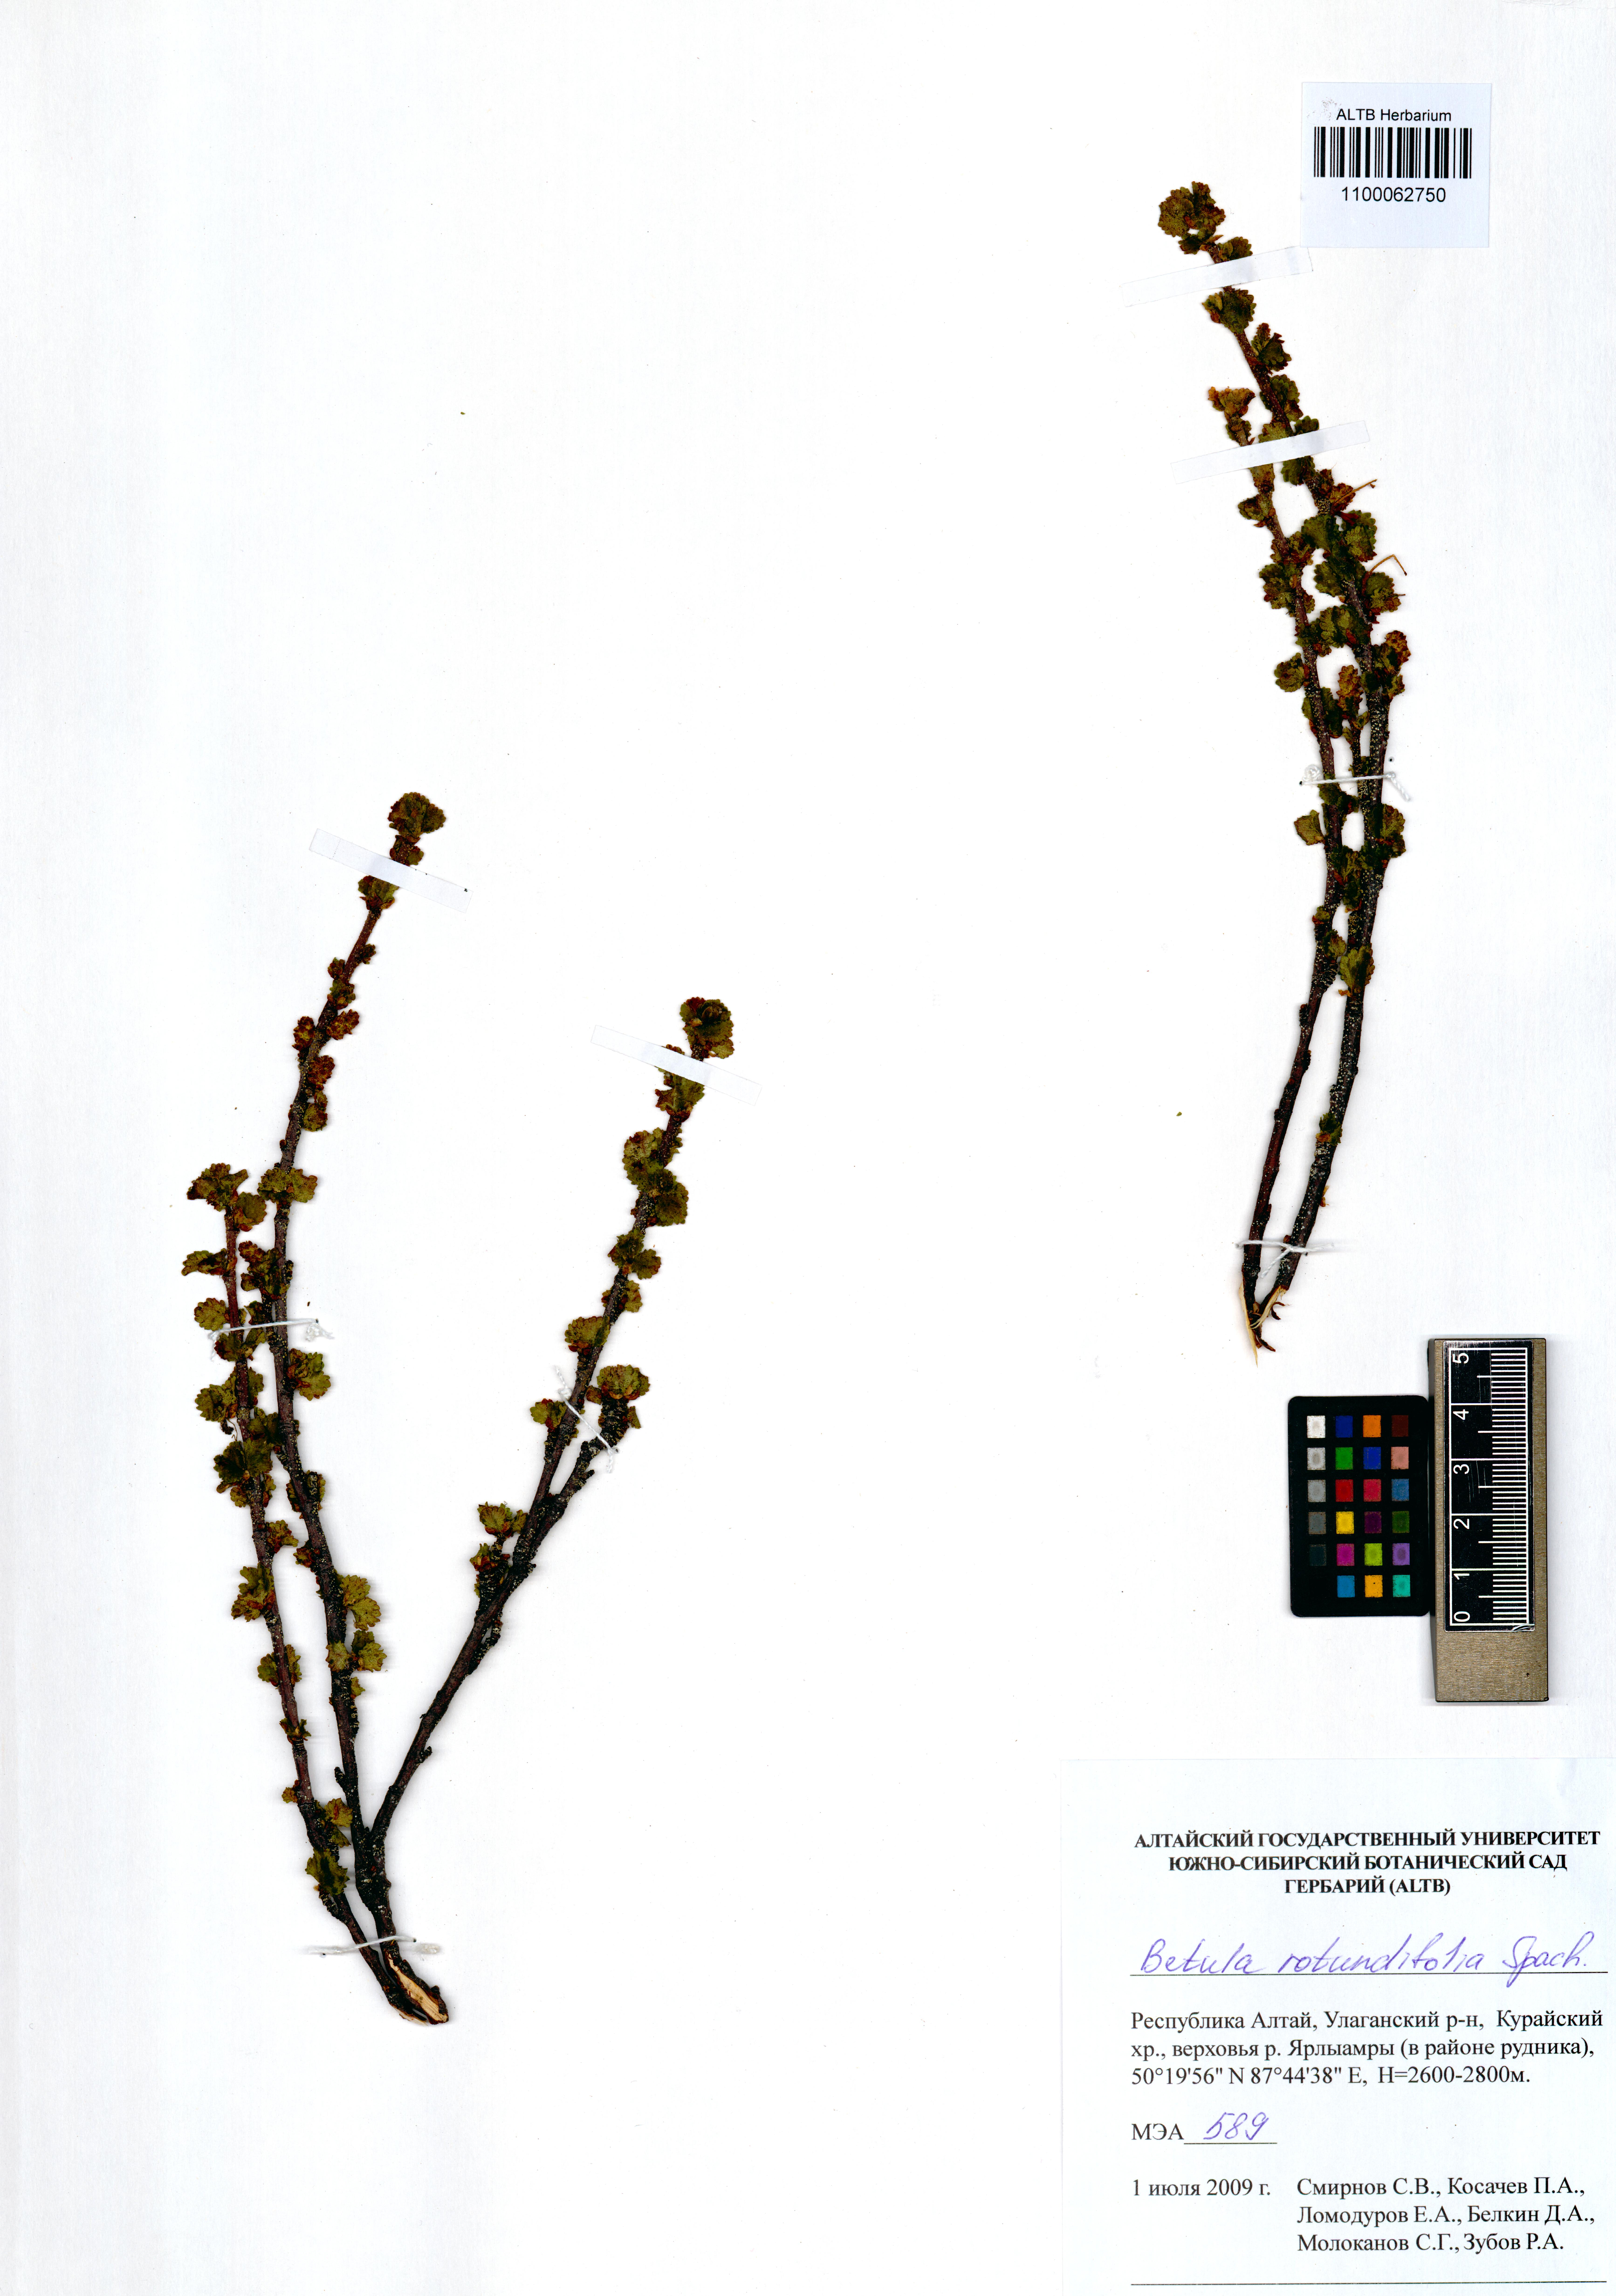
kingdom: Plantae
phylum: Tracheophyta
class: Magnoliopsida
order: Fagales
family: Betulaceae
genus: Betula
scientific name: Betula glandulosa
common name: Dwarf birch
